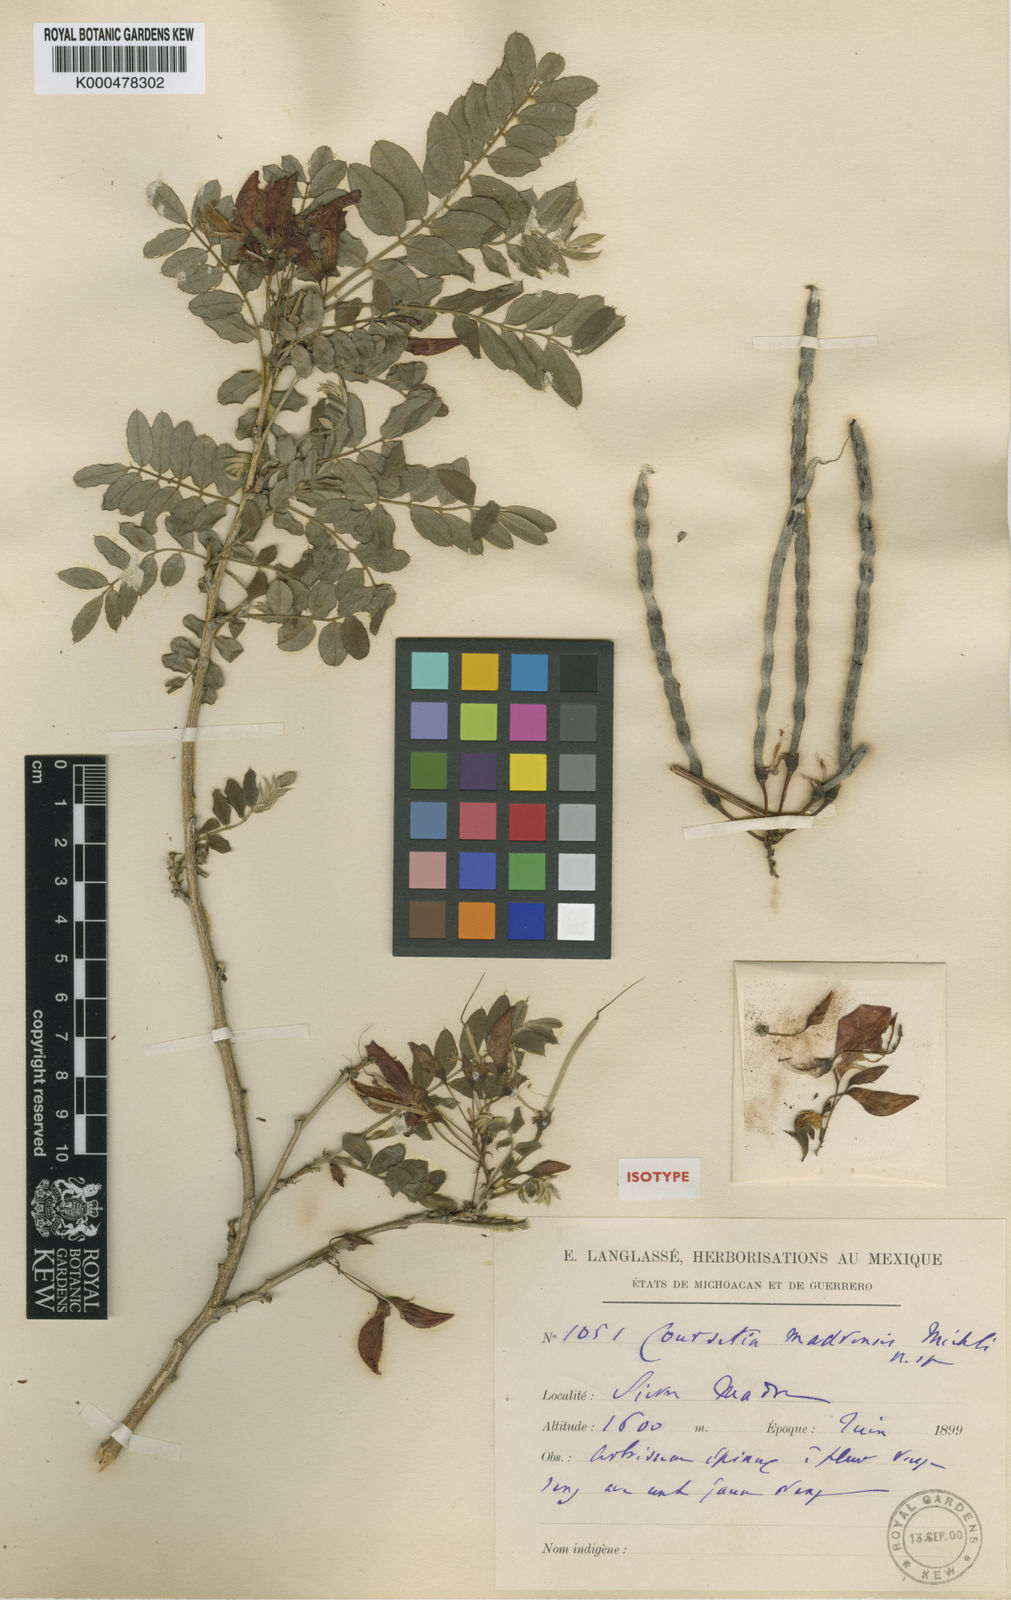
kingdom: Plantae
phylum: Tracheophyta
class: Magnoliopsida
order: Fabales
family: Fabaceae
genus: Coursetia
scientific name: Coursetia madrensis
